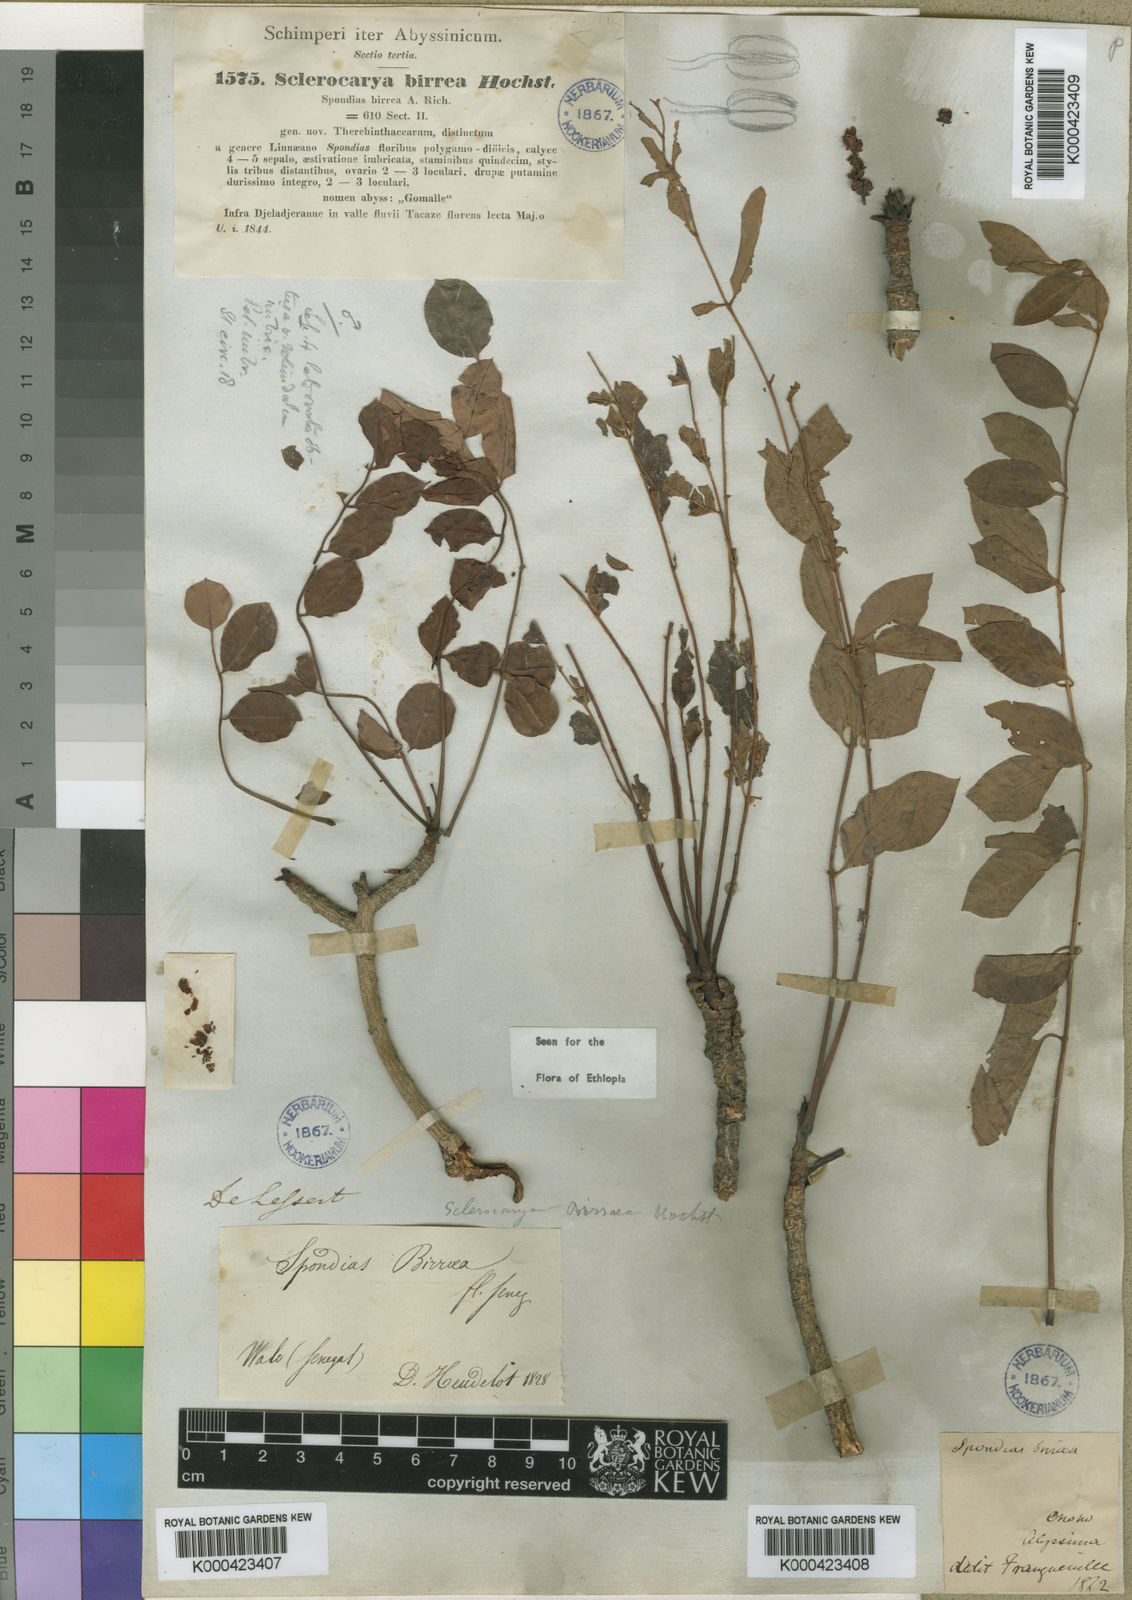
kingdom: Plantae
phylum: Tracheophyta
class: Magnoliopsida
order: Sapindales
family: Anacardiaceae
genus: Sclerocarya
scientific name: Sclerocarya birrea
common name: Marula
